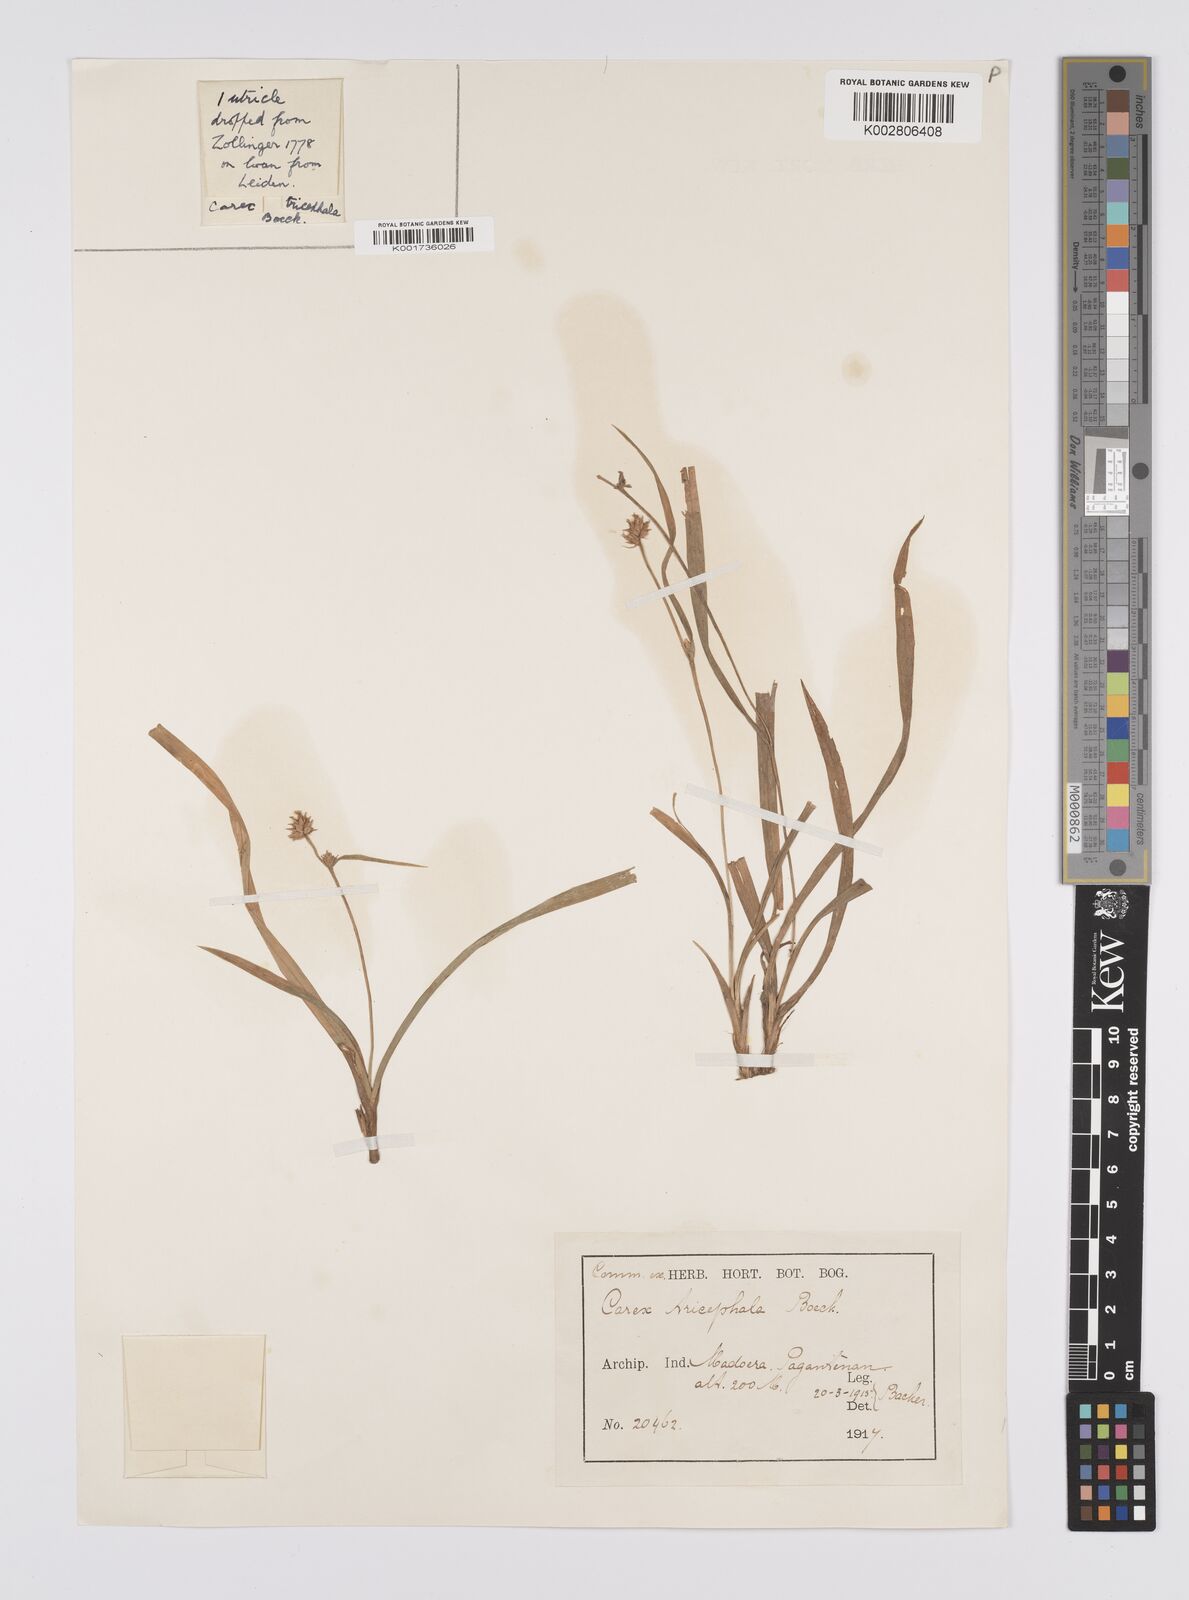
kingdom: Plantae
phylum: Tracheophyta
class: Liliopsida
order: Poales
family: Cyperaceae
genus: Carex
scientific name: Carex tricephala
